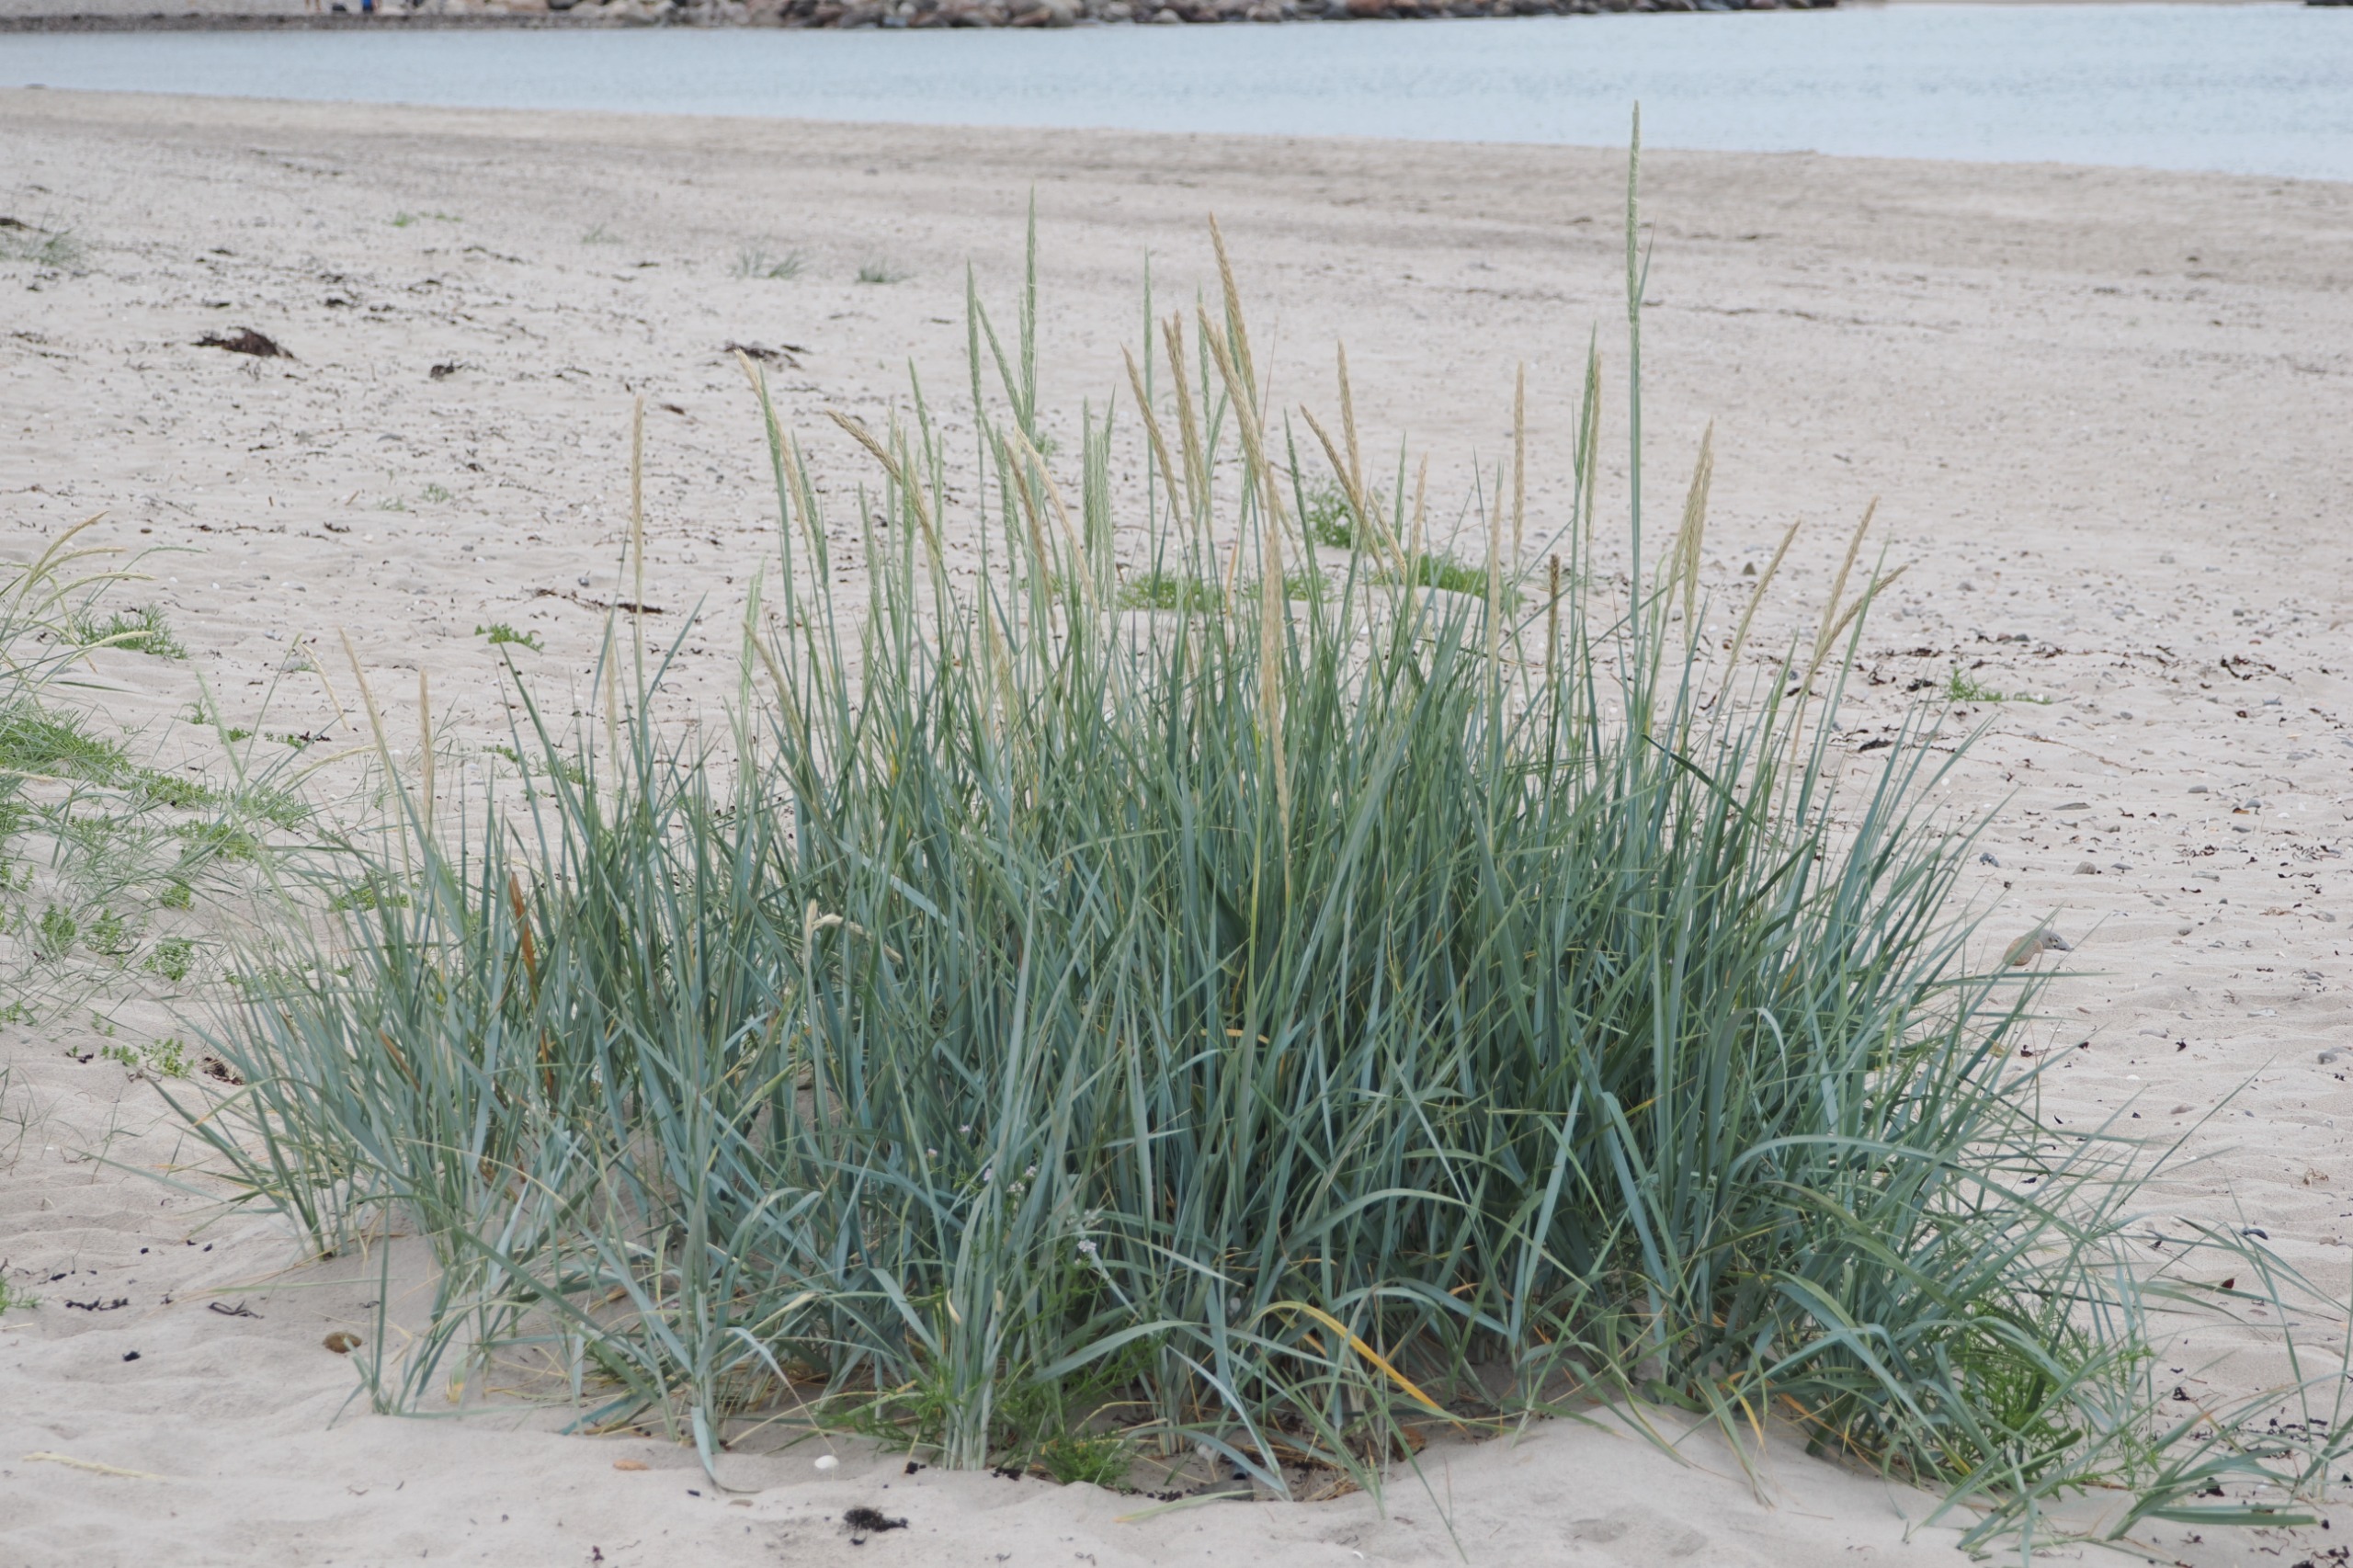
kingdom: Plantae
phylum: Tracheophyta
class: Liliopsida
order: Poales
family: Poaceae
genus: Leymus
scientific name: Leymus arenarius
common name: Marehalm
